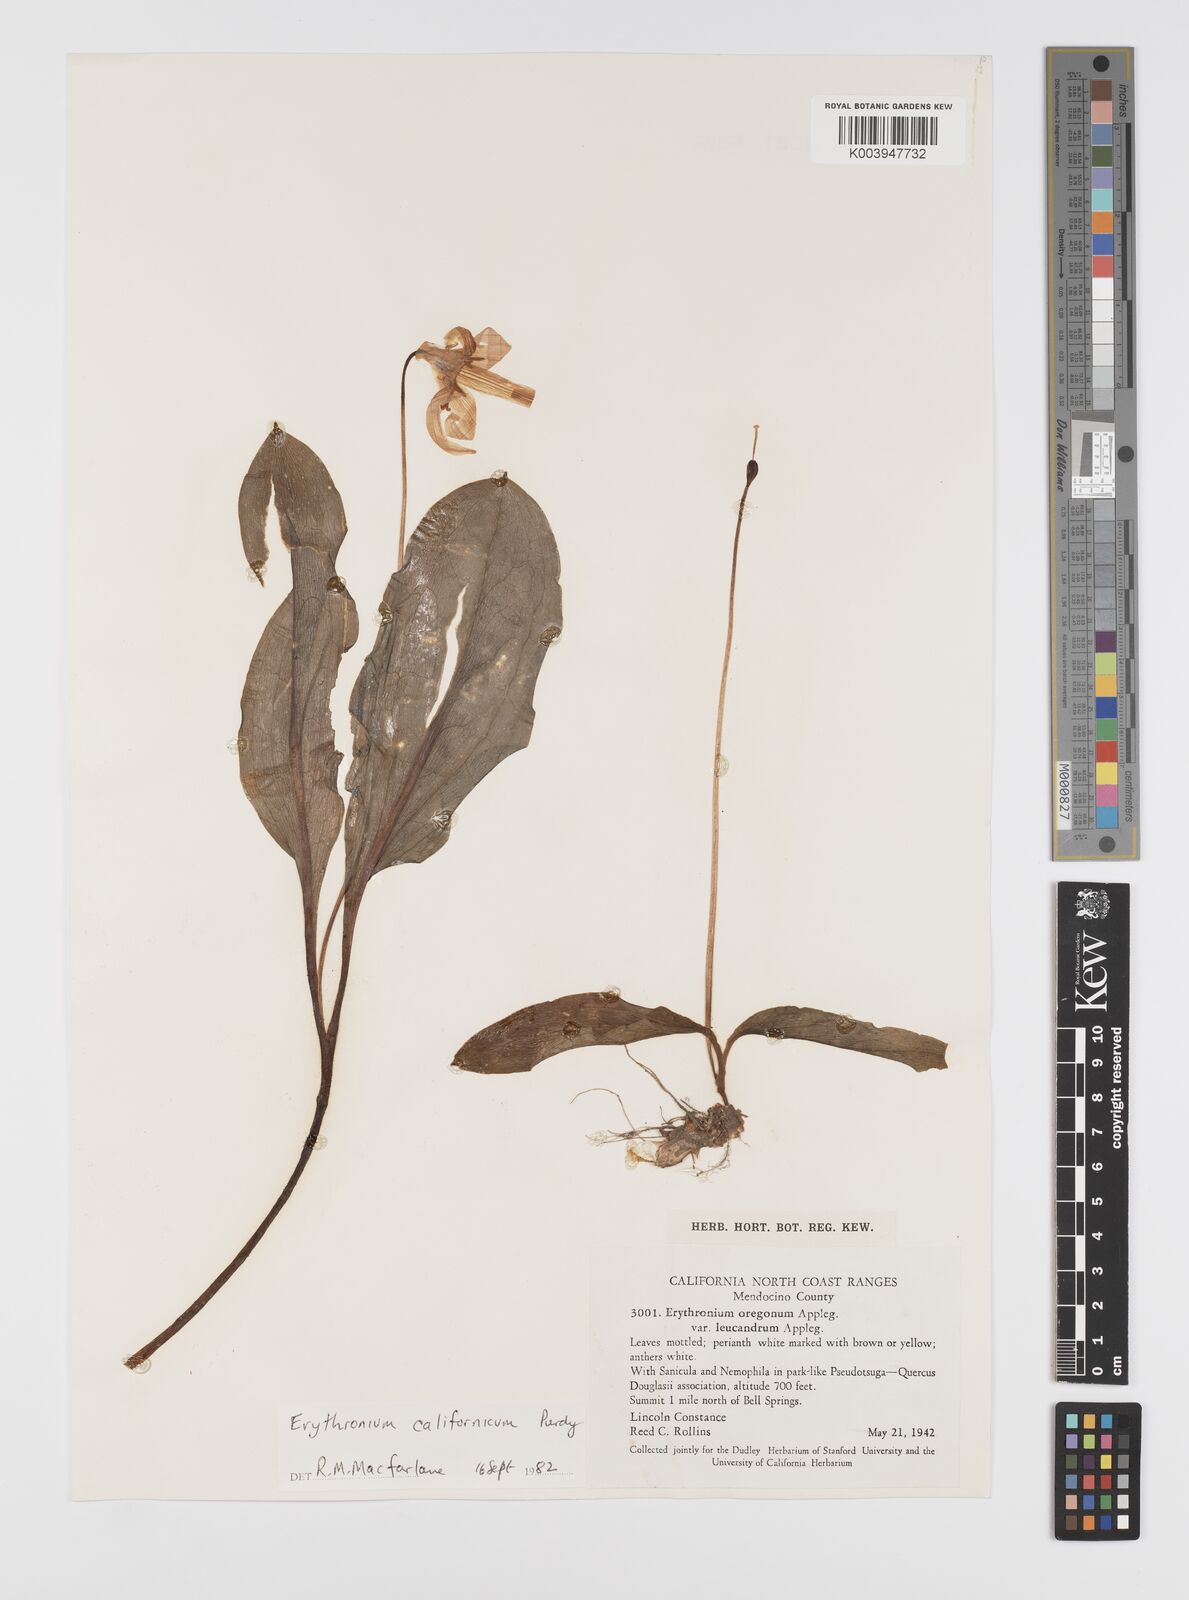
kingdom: Plantae
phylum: Tracheophyta
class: Liliopsida
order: Liliales
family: Liliaceae
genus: Erythronium
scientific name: Erythronium californicum
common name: Fawn-lily
